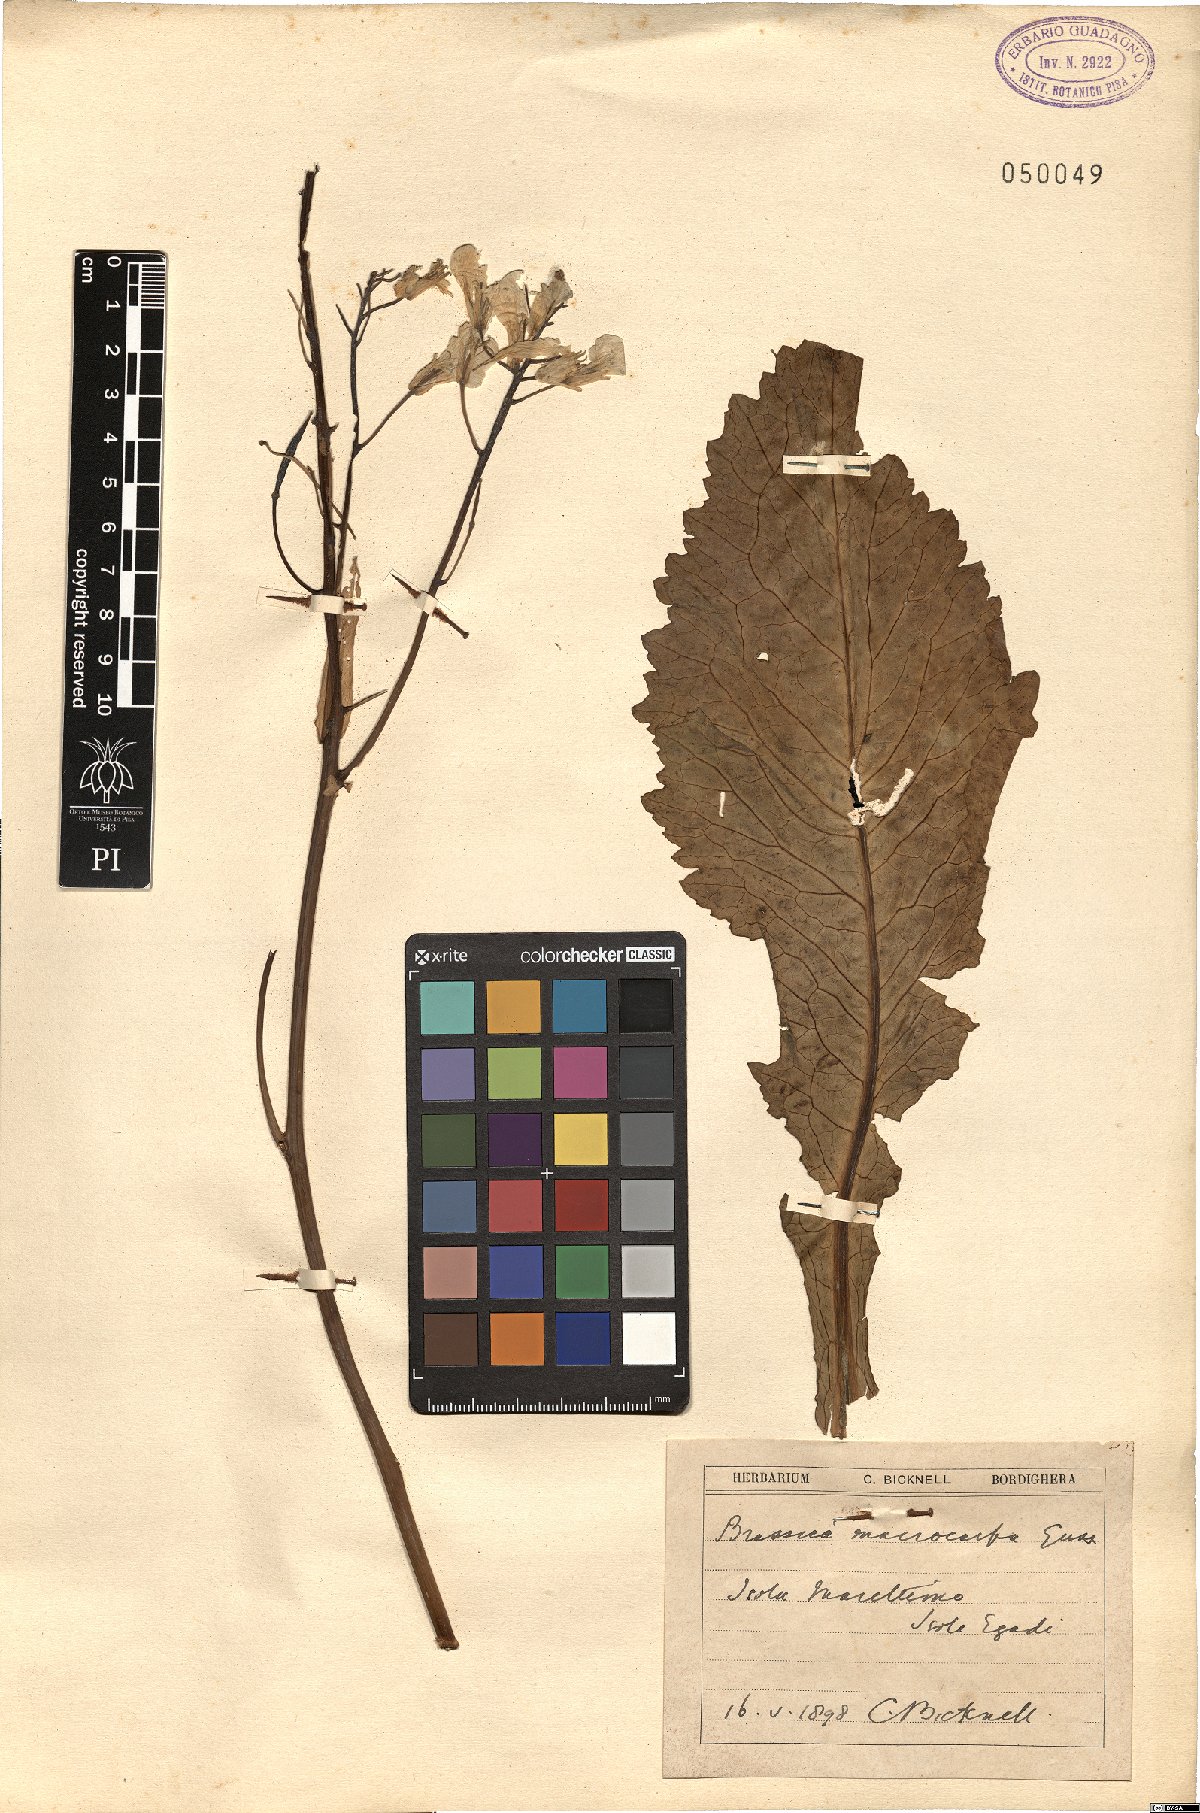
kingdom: Plantae
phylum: Tracheophyta
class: Magnoliopsida
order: Brassicales
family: Brassicaceae
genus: Brassica
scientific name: Brassica macrocarpa
